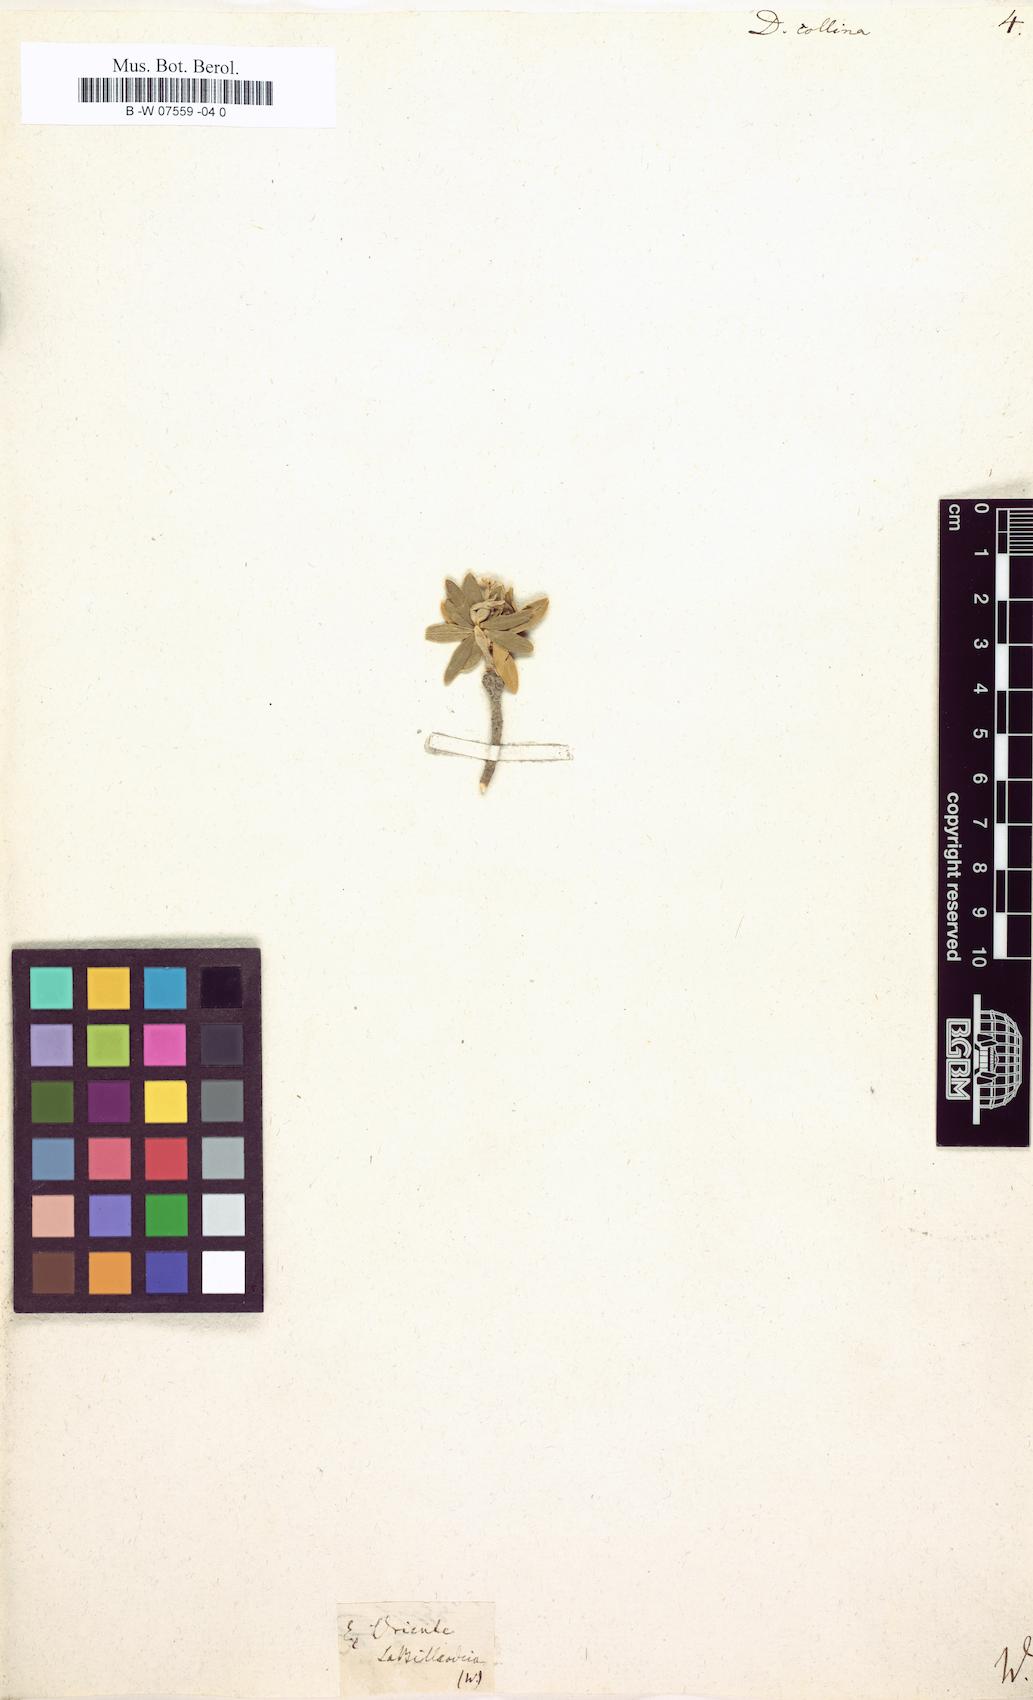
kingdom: Plantae
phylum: Tracheophyta
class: Magnoliopsida
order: Malvales
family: Thymelaeaceae
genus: Daphne
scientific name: Daphne
